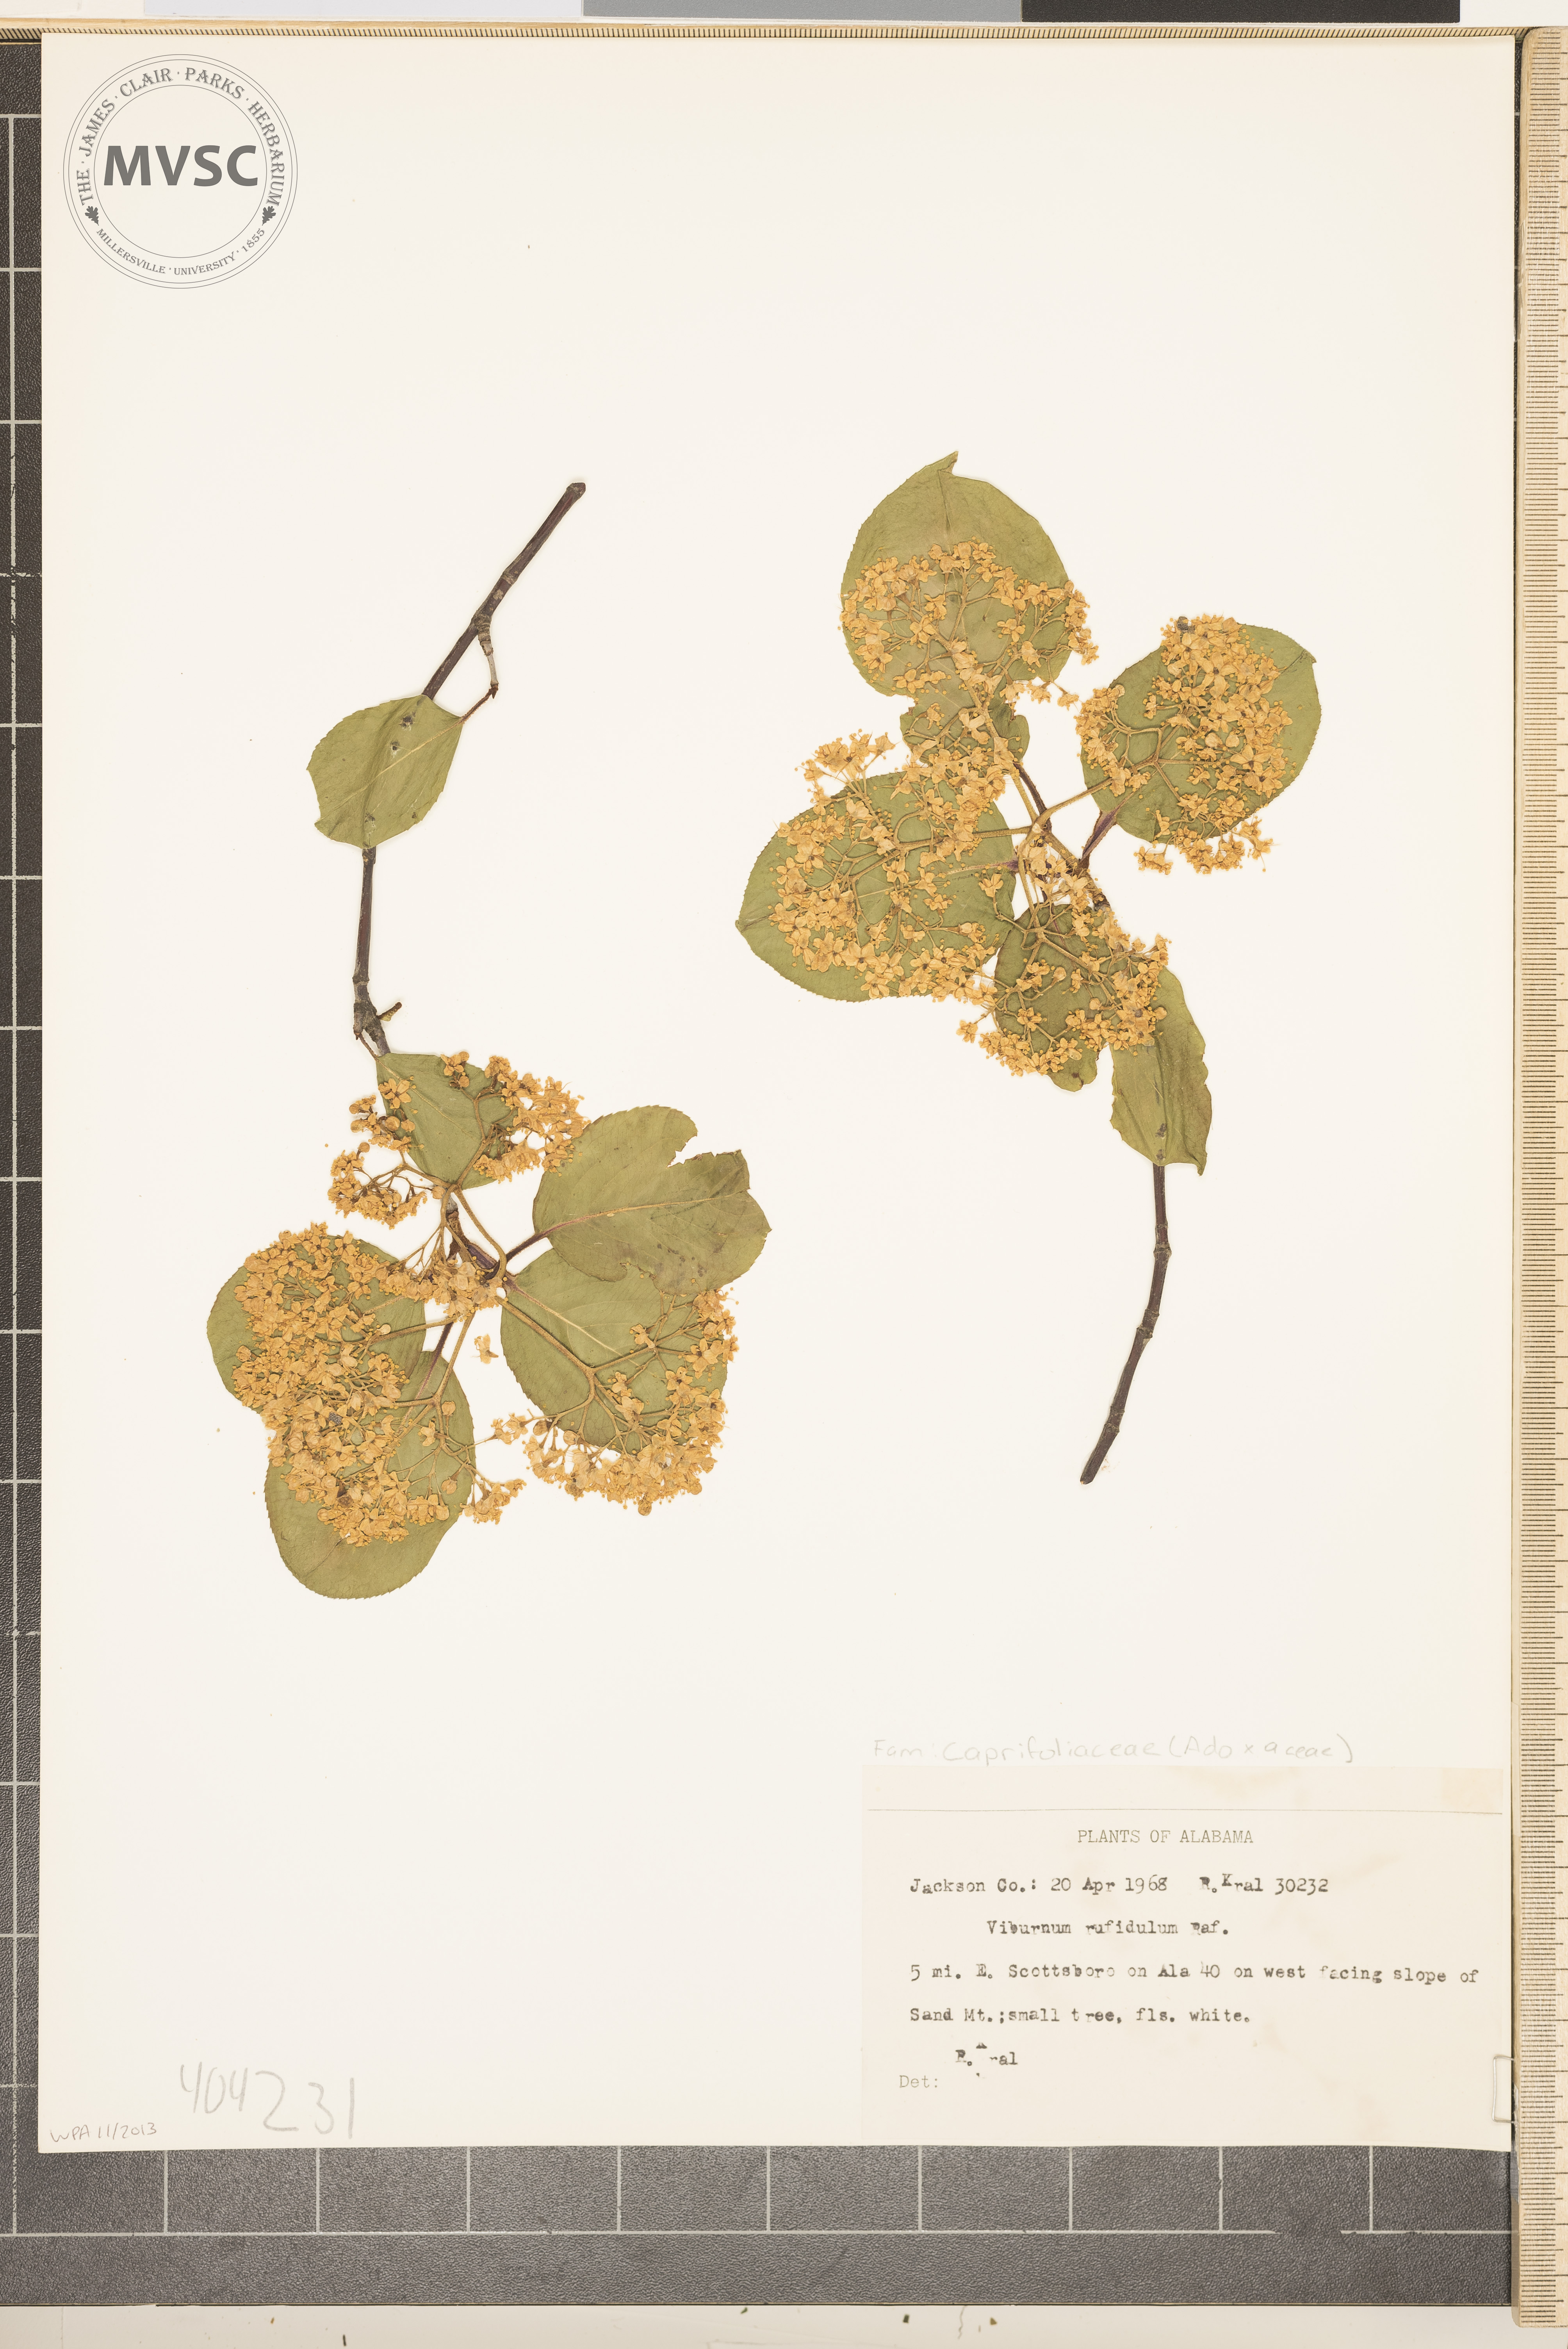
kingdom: Plantae
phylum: Tracheophyta
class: Magnoliopsida
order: Dipsacales
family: Viburnaceae
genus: Viburnum
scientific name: Viburnum rufidulum
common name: Blue haw
